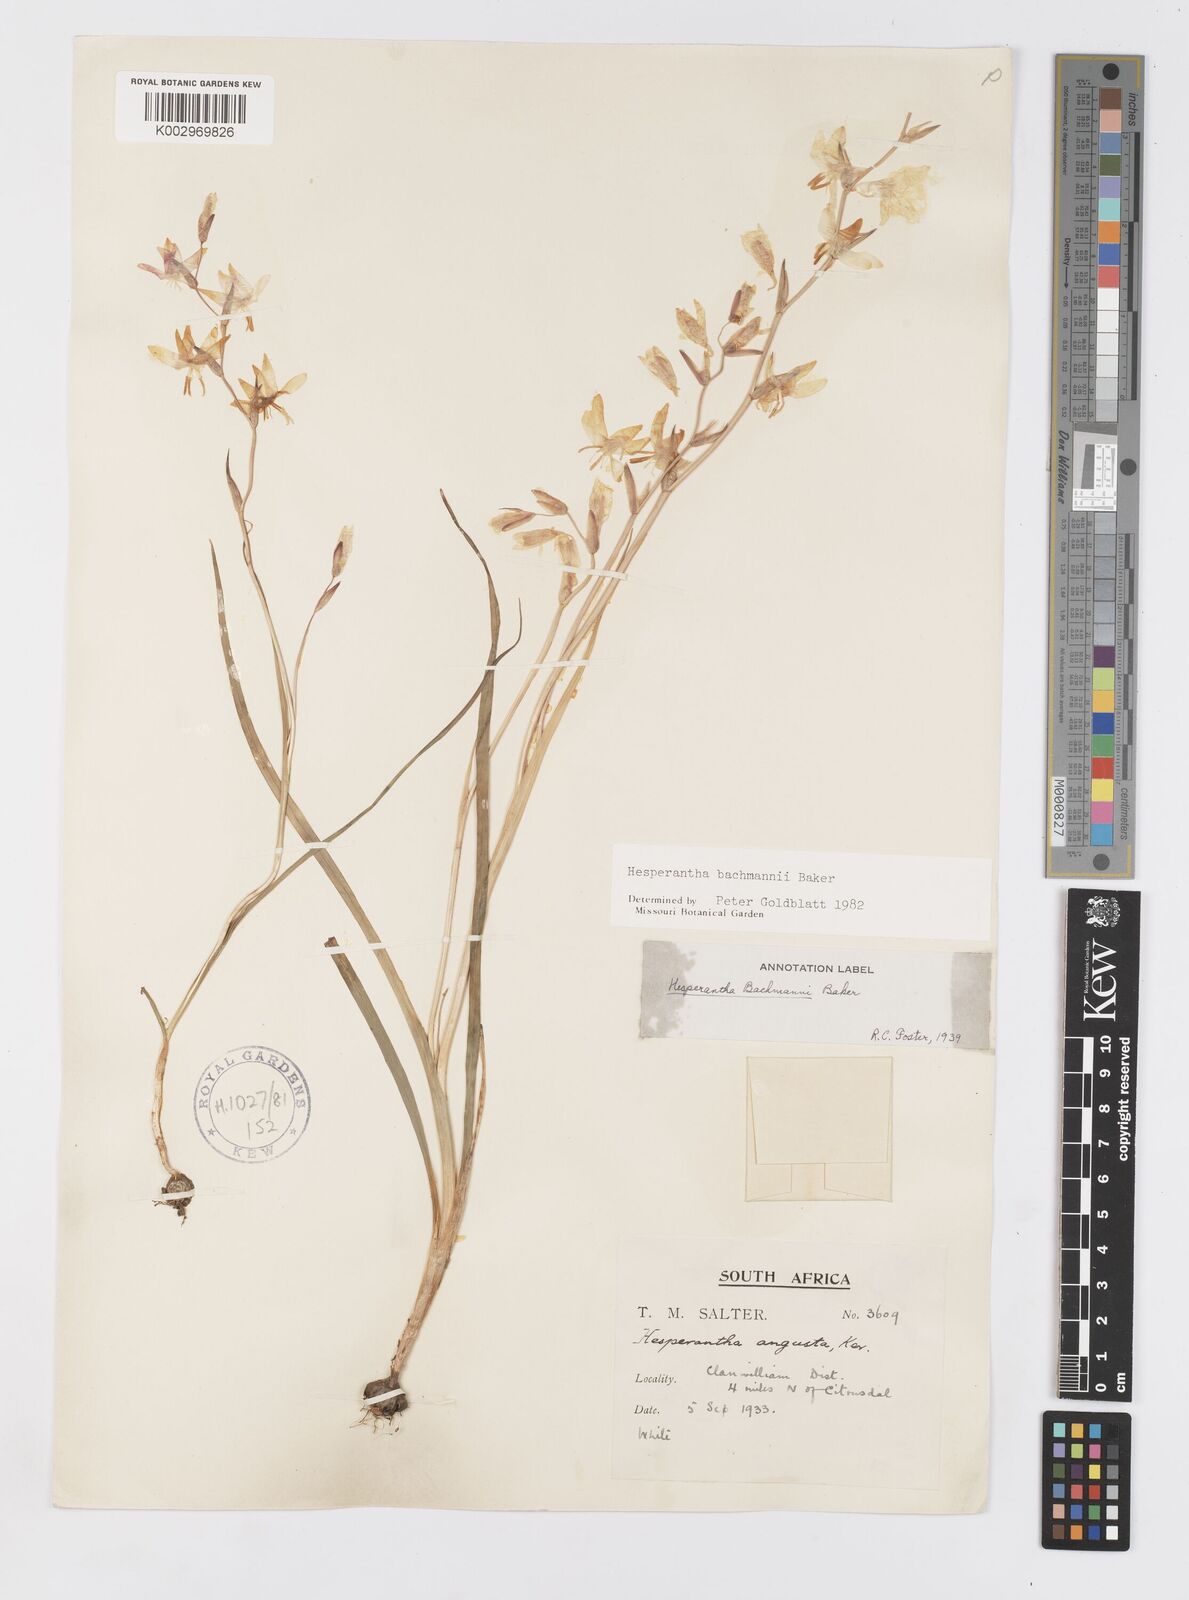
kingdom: Plantae
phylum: Tracheophyta
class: Liliopsida
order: Asparagales
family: Iridaceae
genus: Hesperantha
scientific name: Hesperantha bachmannii
